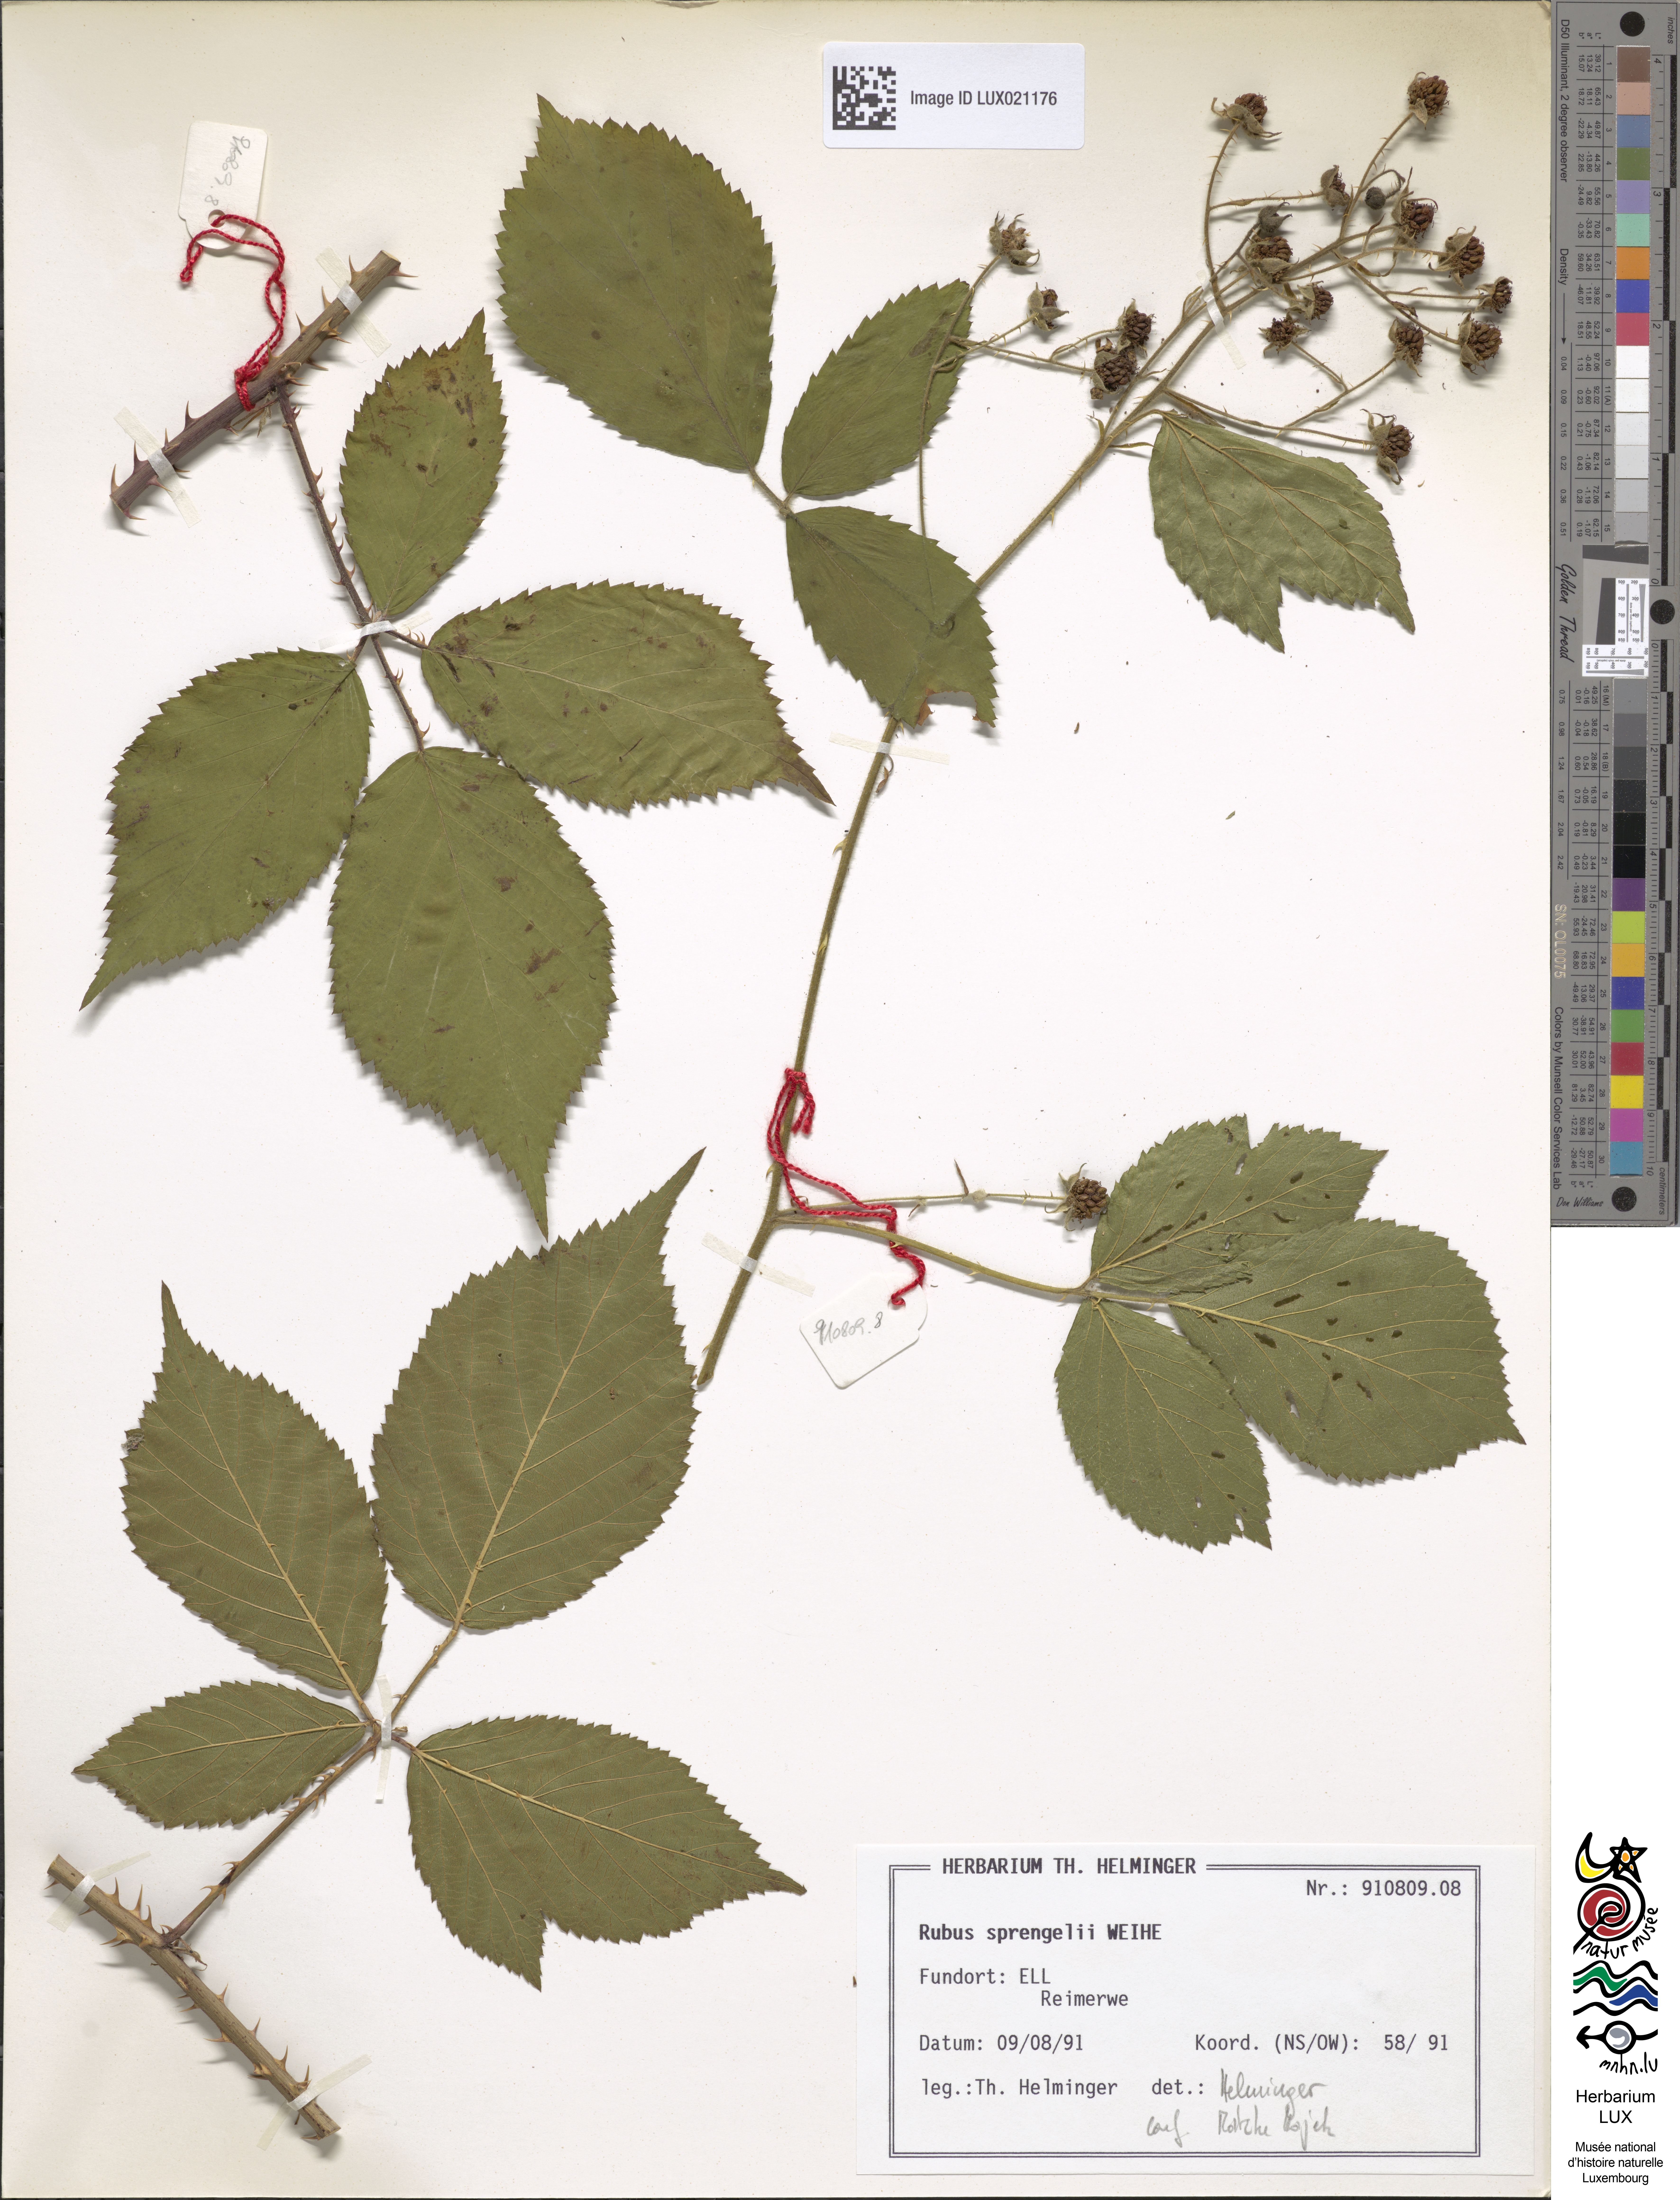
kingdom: Plantae
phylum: Tracheophyta
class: Magnoliopsida
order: Rosales
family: Rosaceae
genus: Rubus
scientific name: Rubus sprengelii
